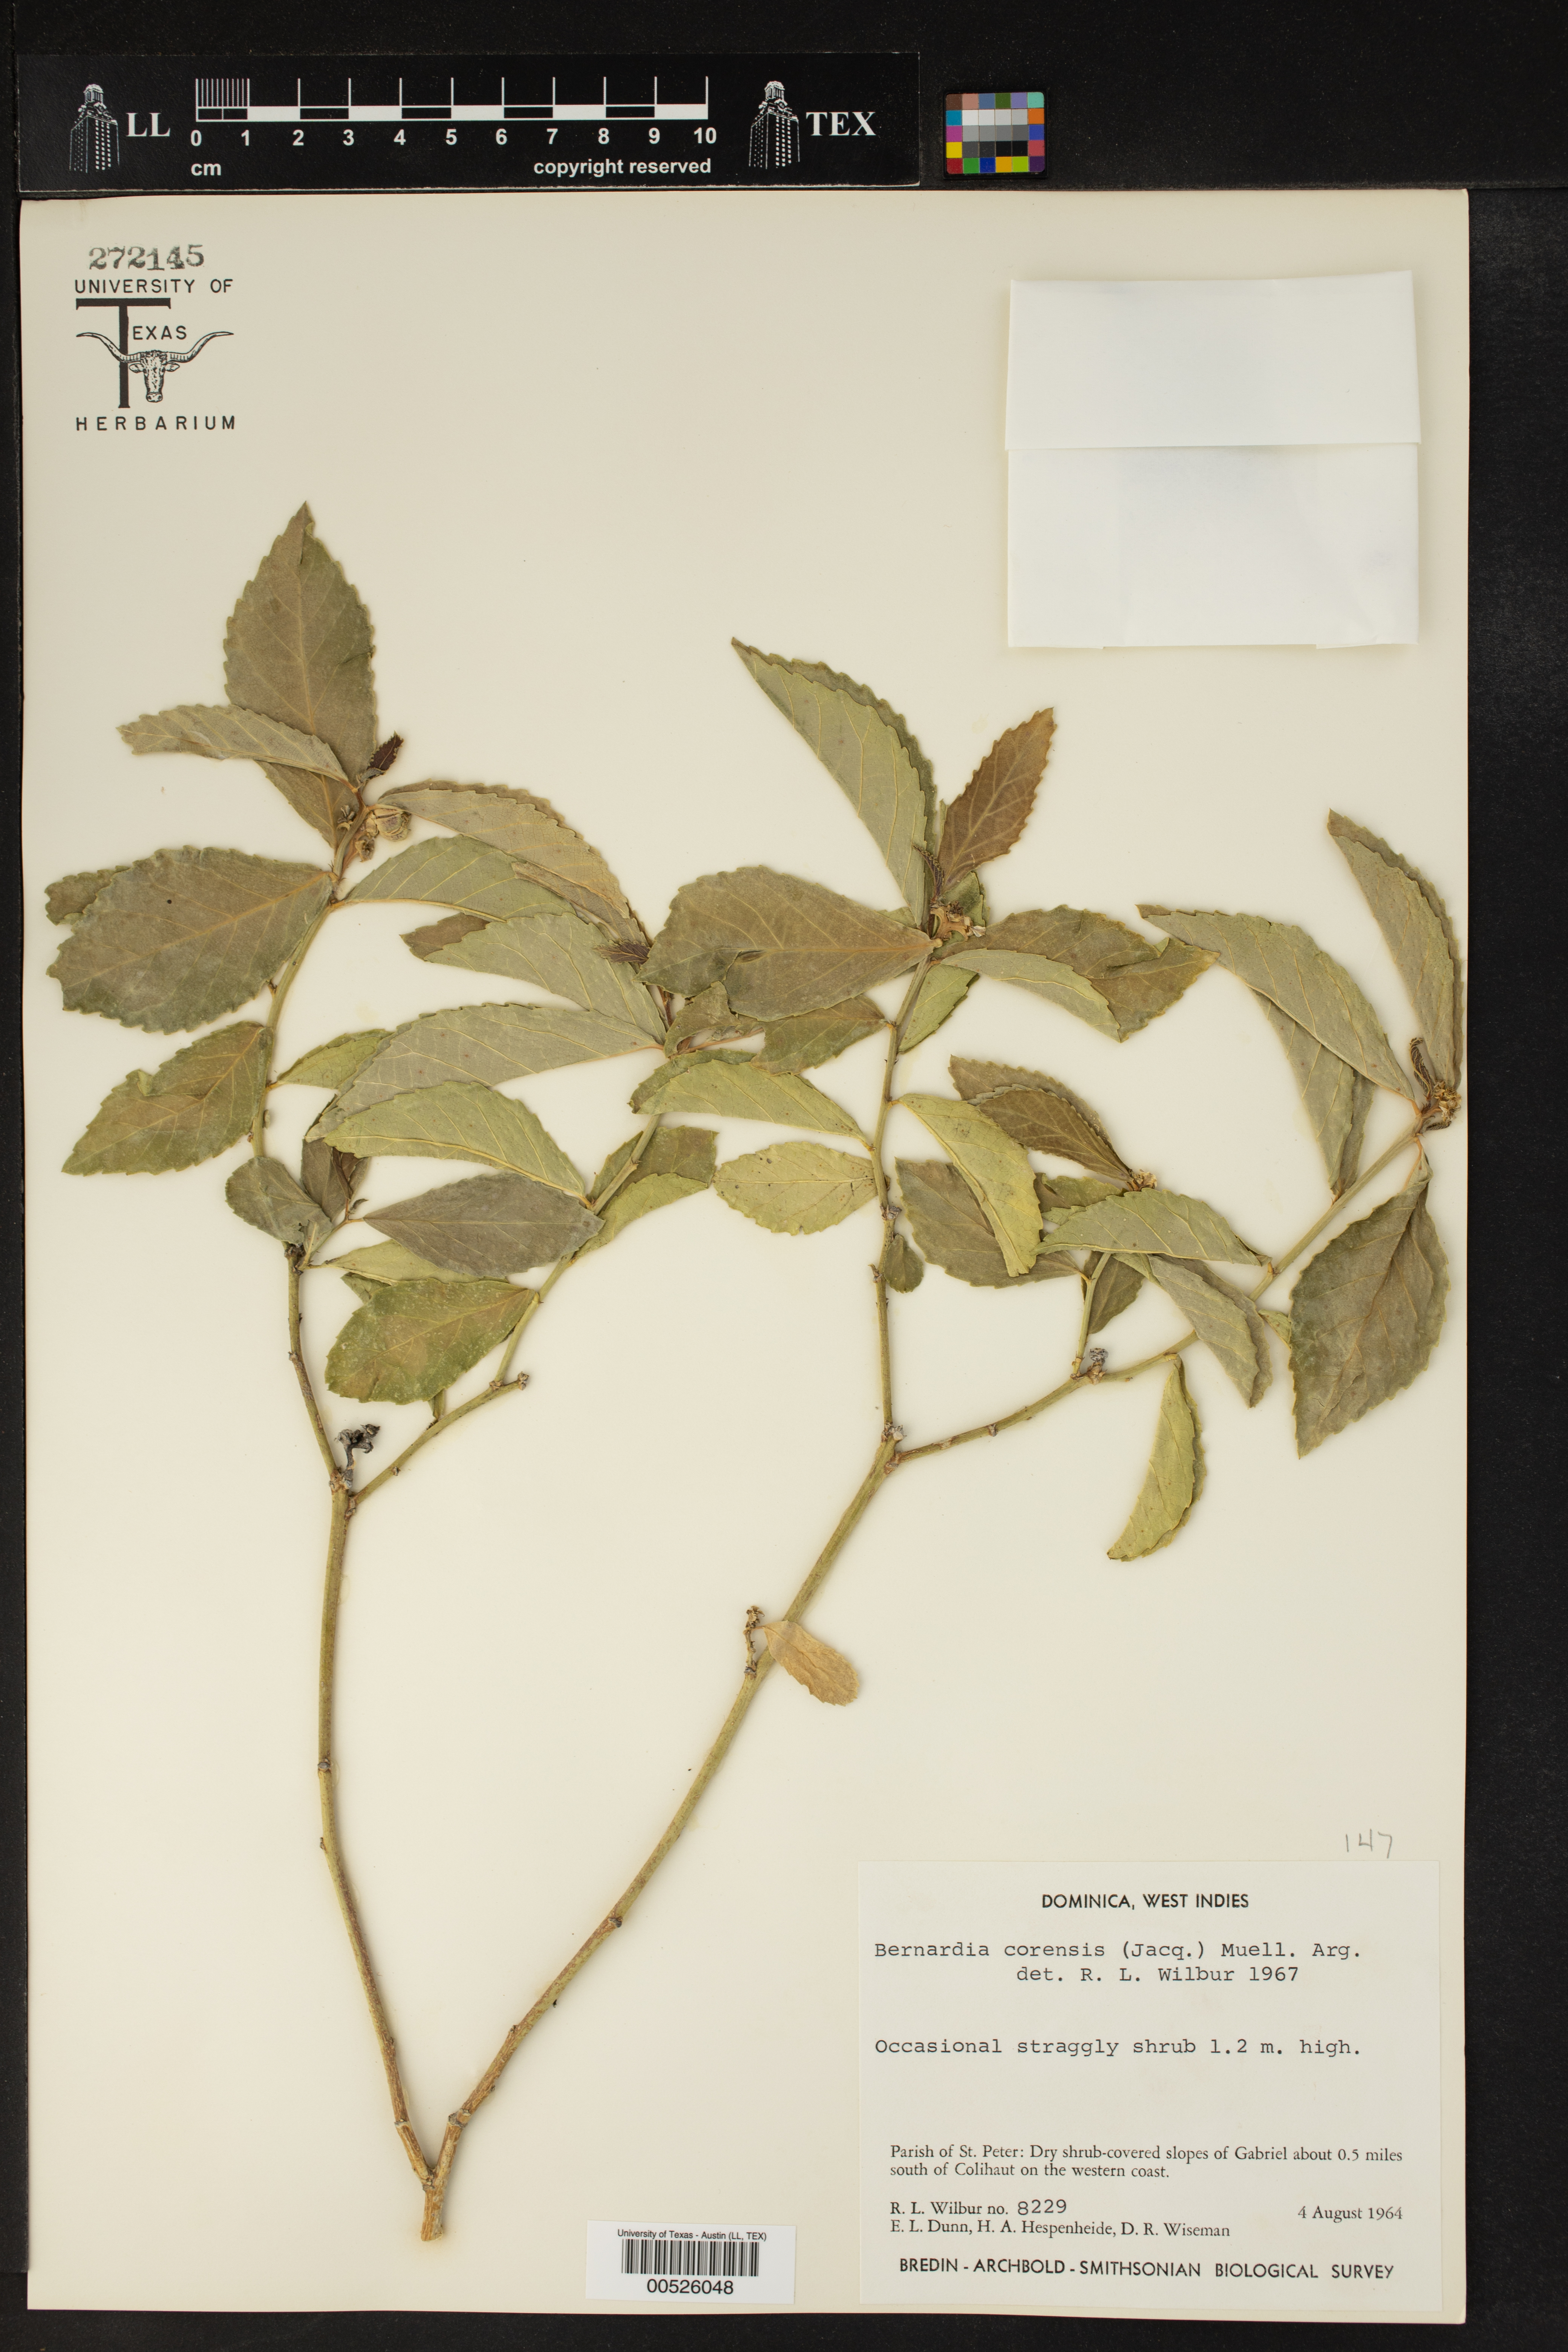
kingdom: Plantae
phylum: Tracheophyta
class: Magnoliopsida
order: Malpighiales
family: Euphorbiaceae
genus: Bernardia
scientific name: Bernardia corensis
